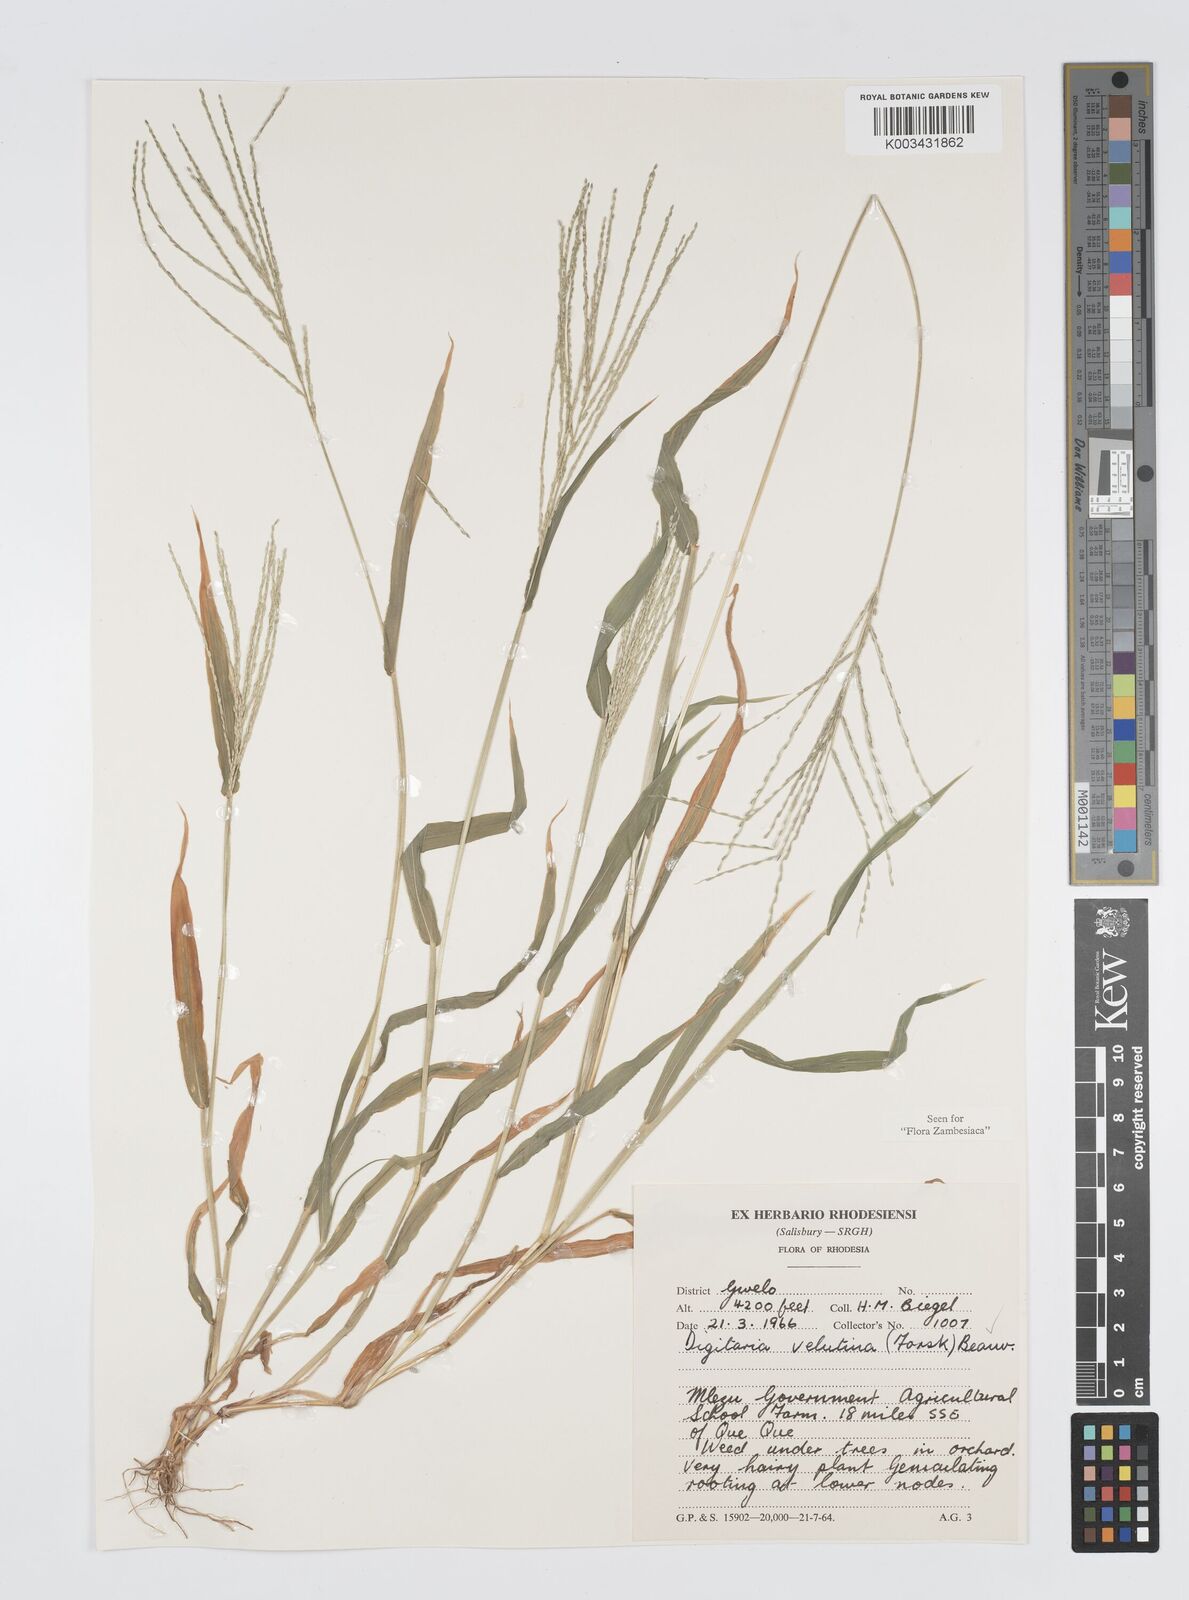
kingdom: Plantae
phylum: Tracheophyta
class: Liliopsida
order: Poales
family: Poaceae
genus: Digitaria
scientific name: Digitaria velutina
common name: Long-plume finger grass
